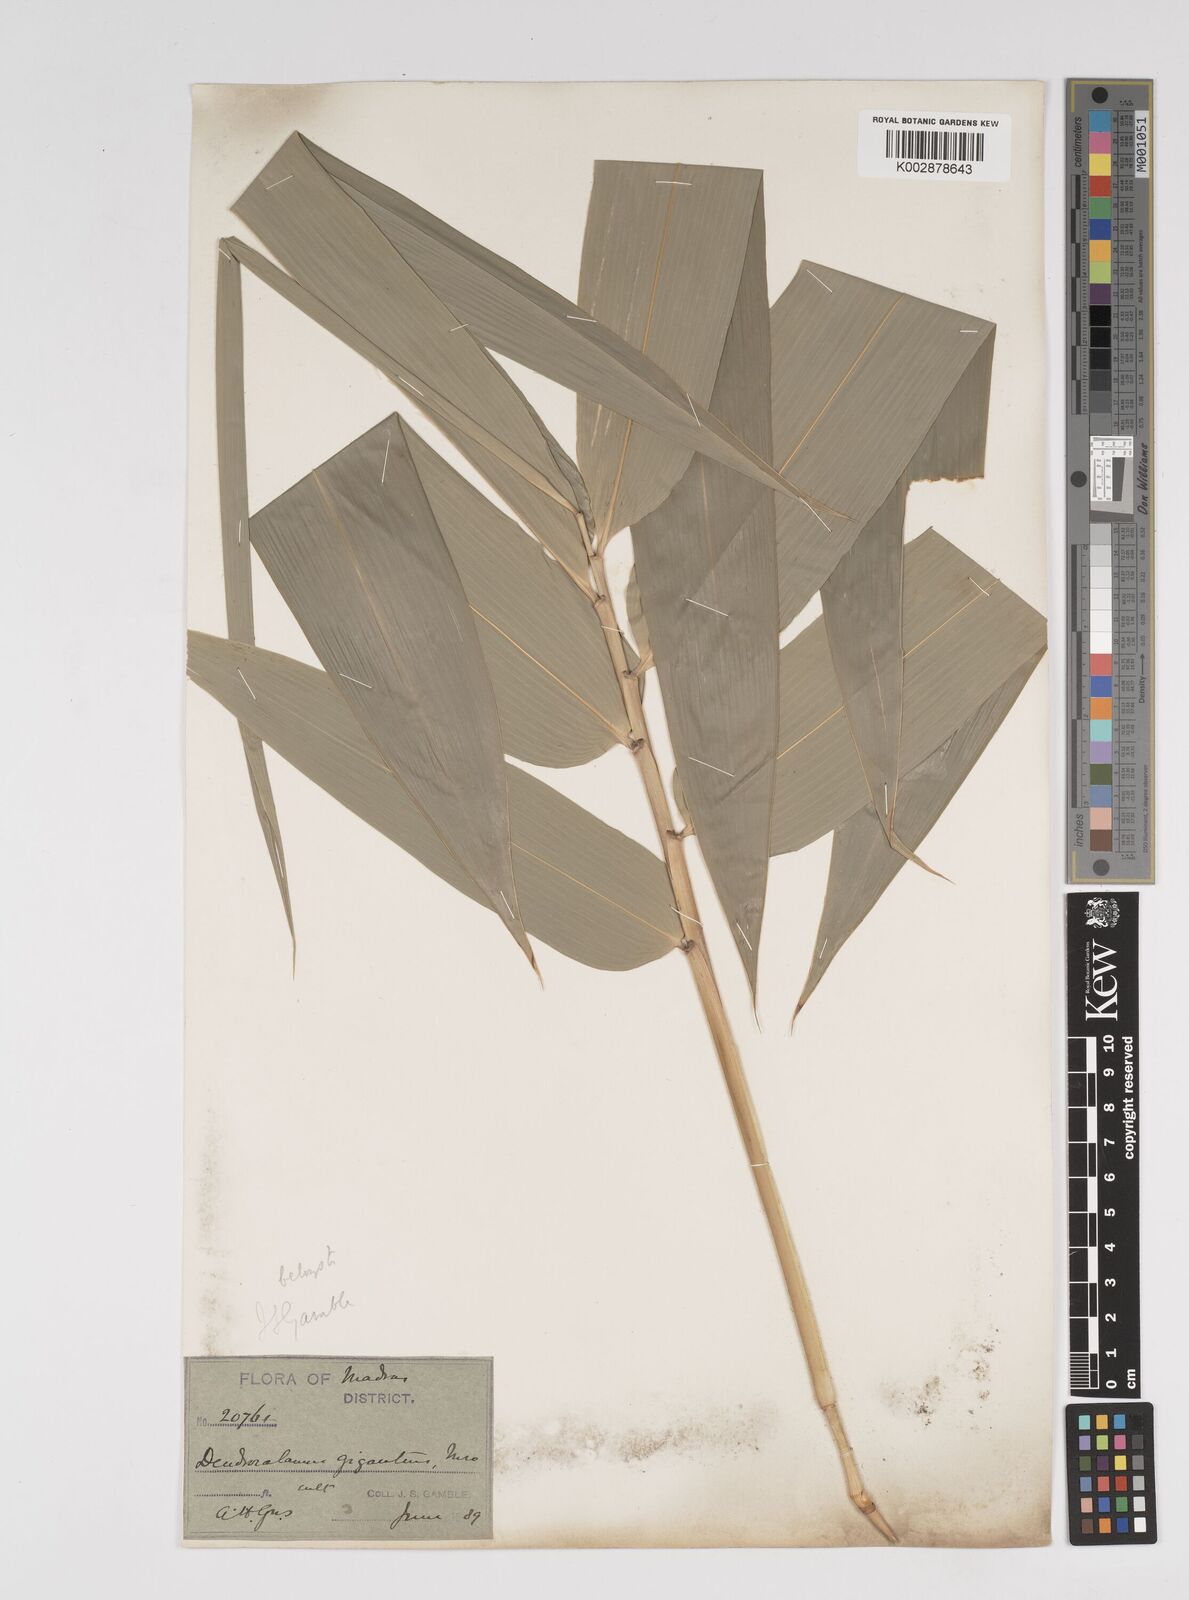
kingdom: Plantae
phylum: Tracheophyta
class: Liliopsida
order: Poales
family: Poaceae
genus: Dendrocalamus
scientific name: Dendrocalamus giganteus
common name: Giant bamboo
